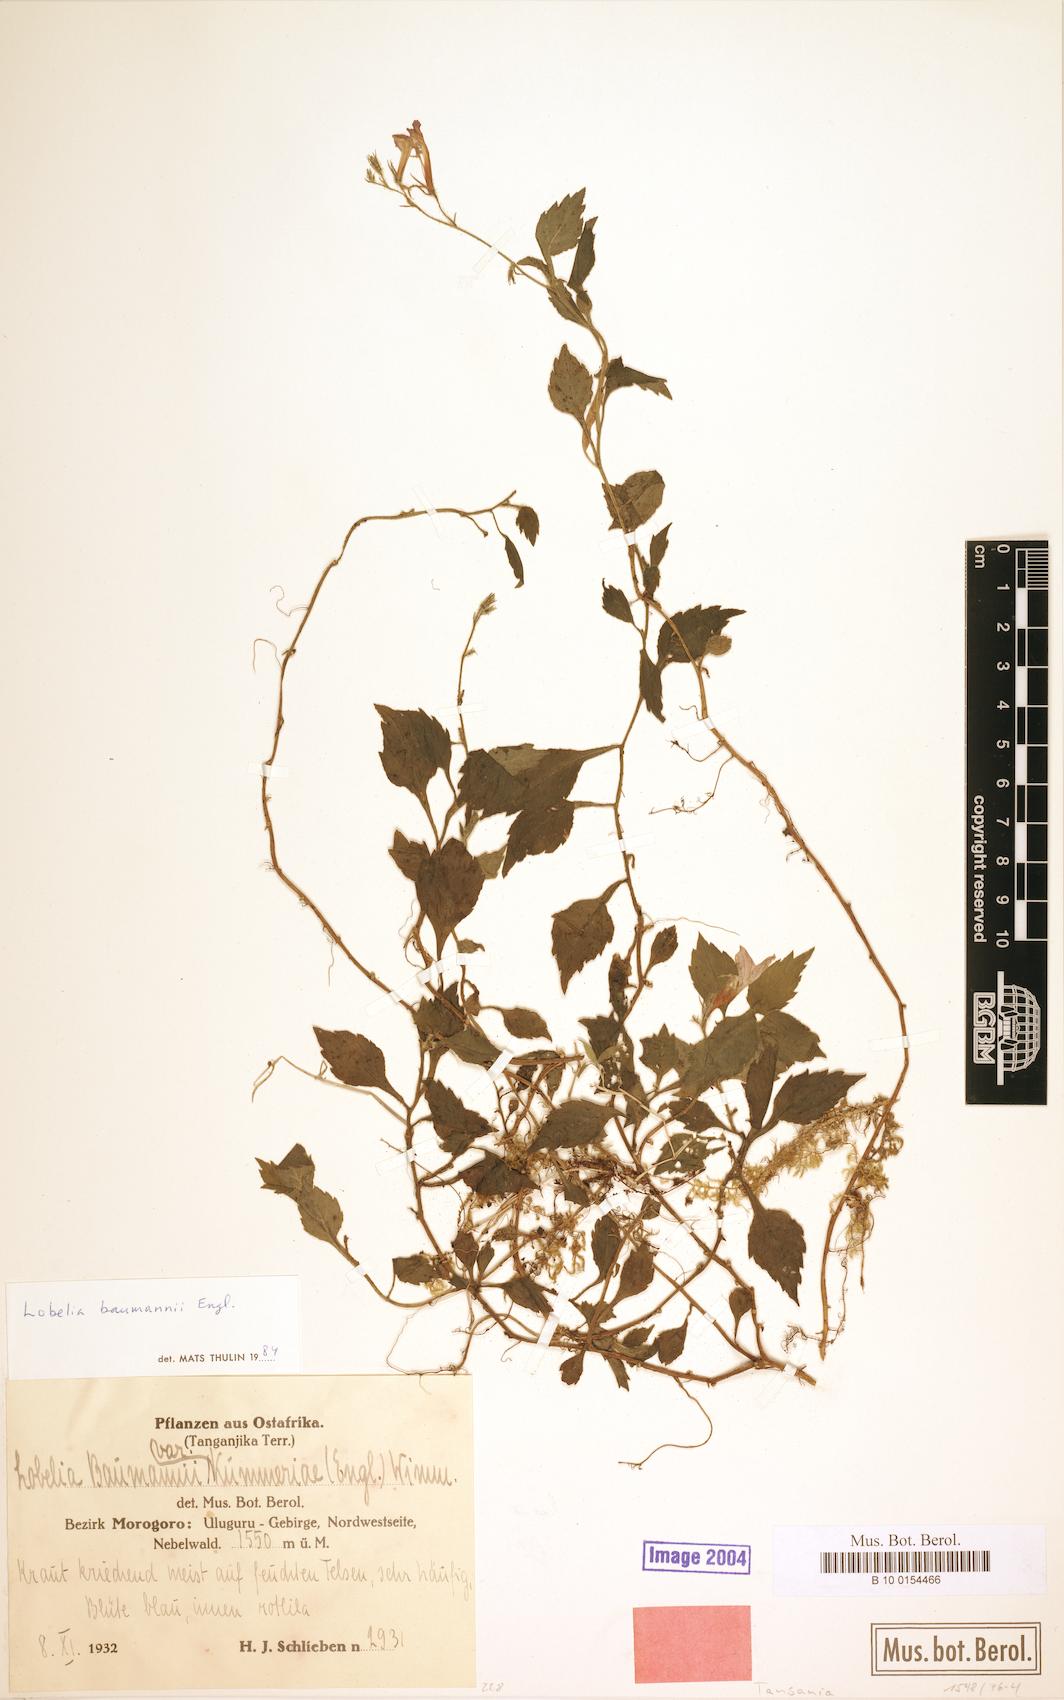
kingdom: Plantae
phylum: Tracheophyta
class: Magnoliopsida
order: Asterales
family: Campanulaceae
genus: Lobelia
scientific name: Lobelia baumannii
